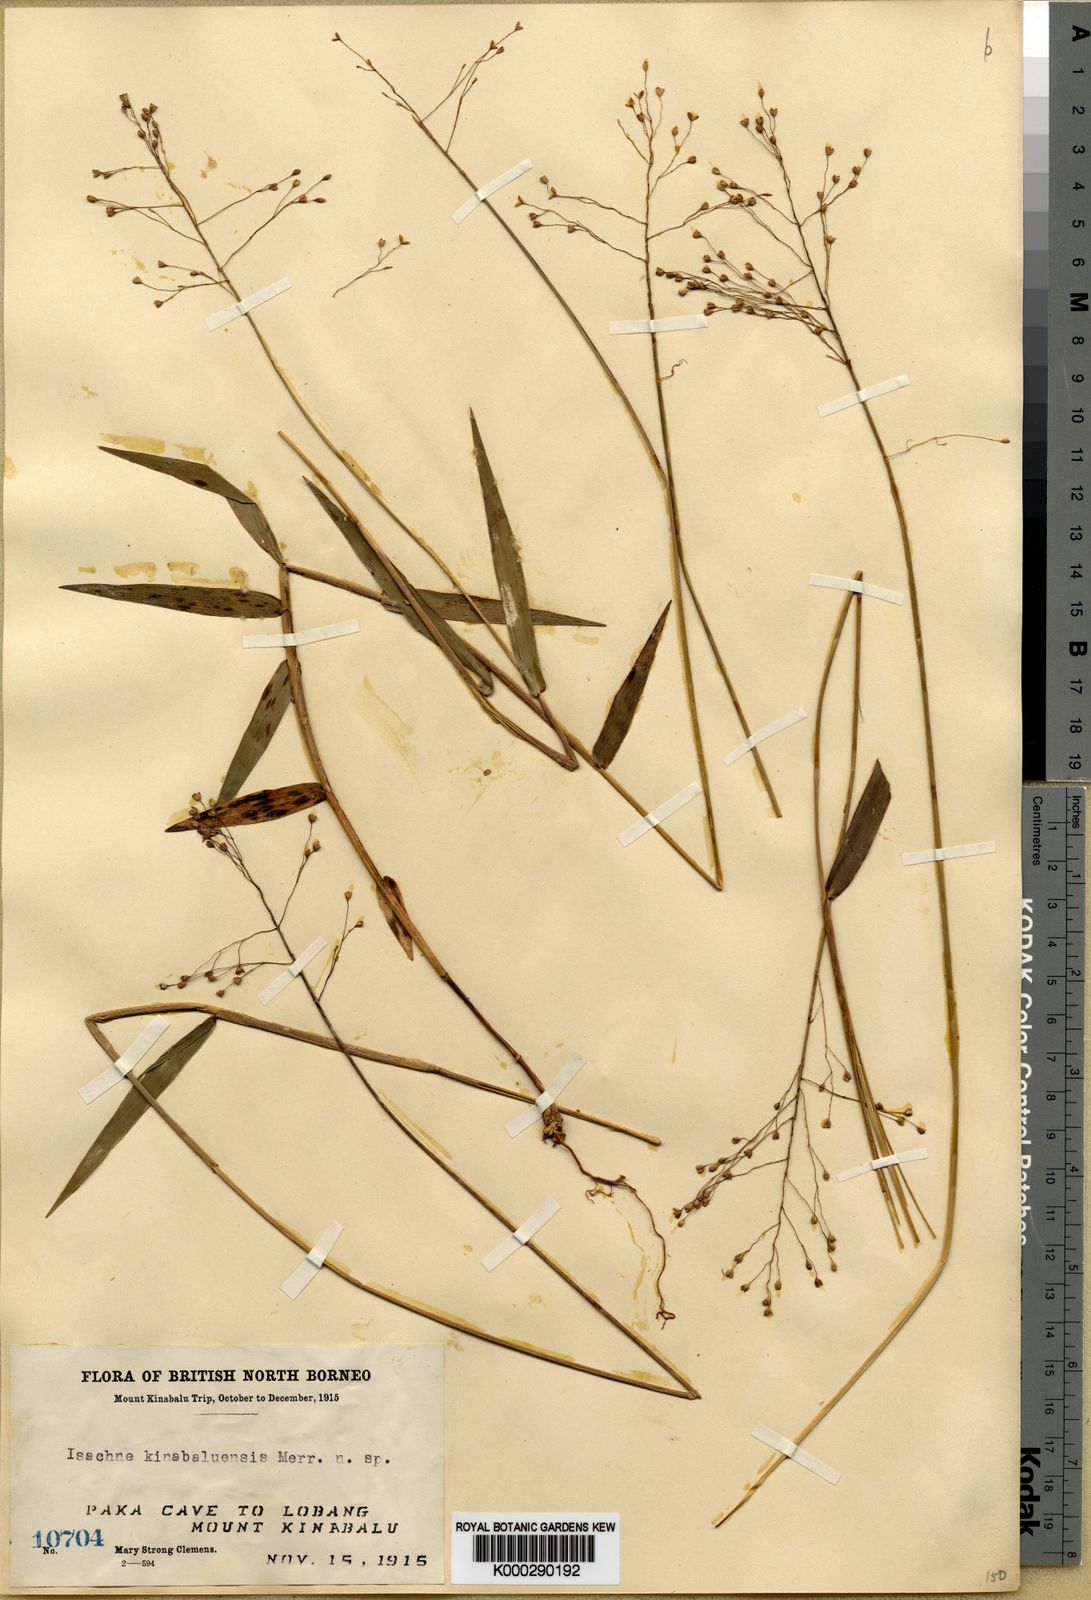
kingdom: Plantae
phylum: Tracheophyta
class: Liliopsida
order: Poales
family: Poaceae
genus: Isachne
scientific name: Isachne kinabaluensis
